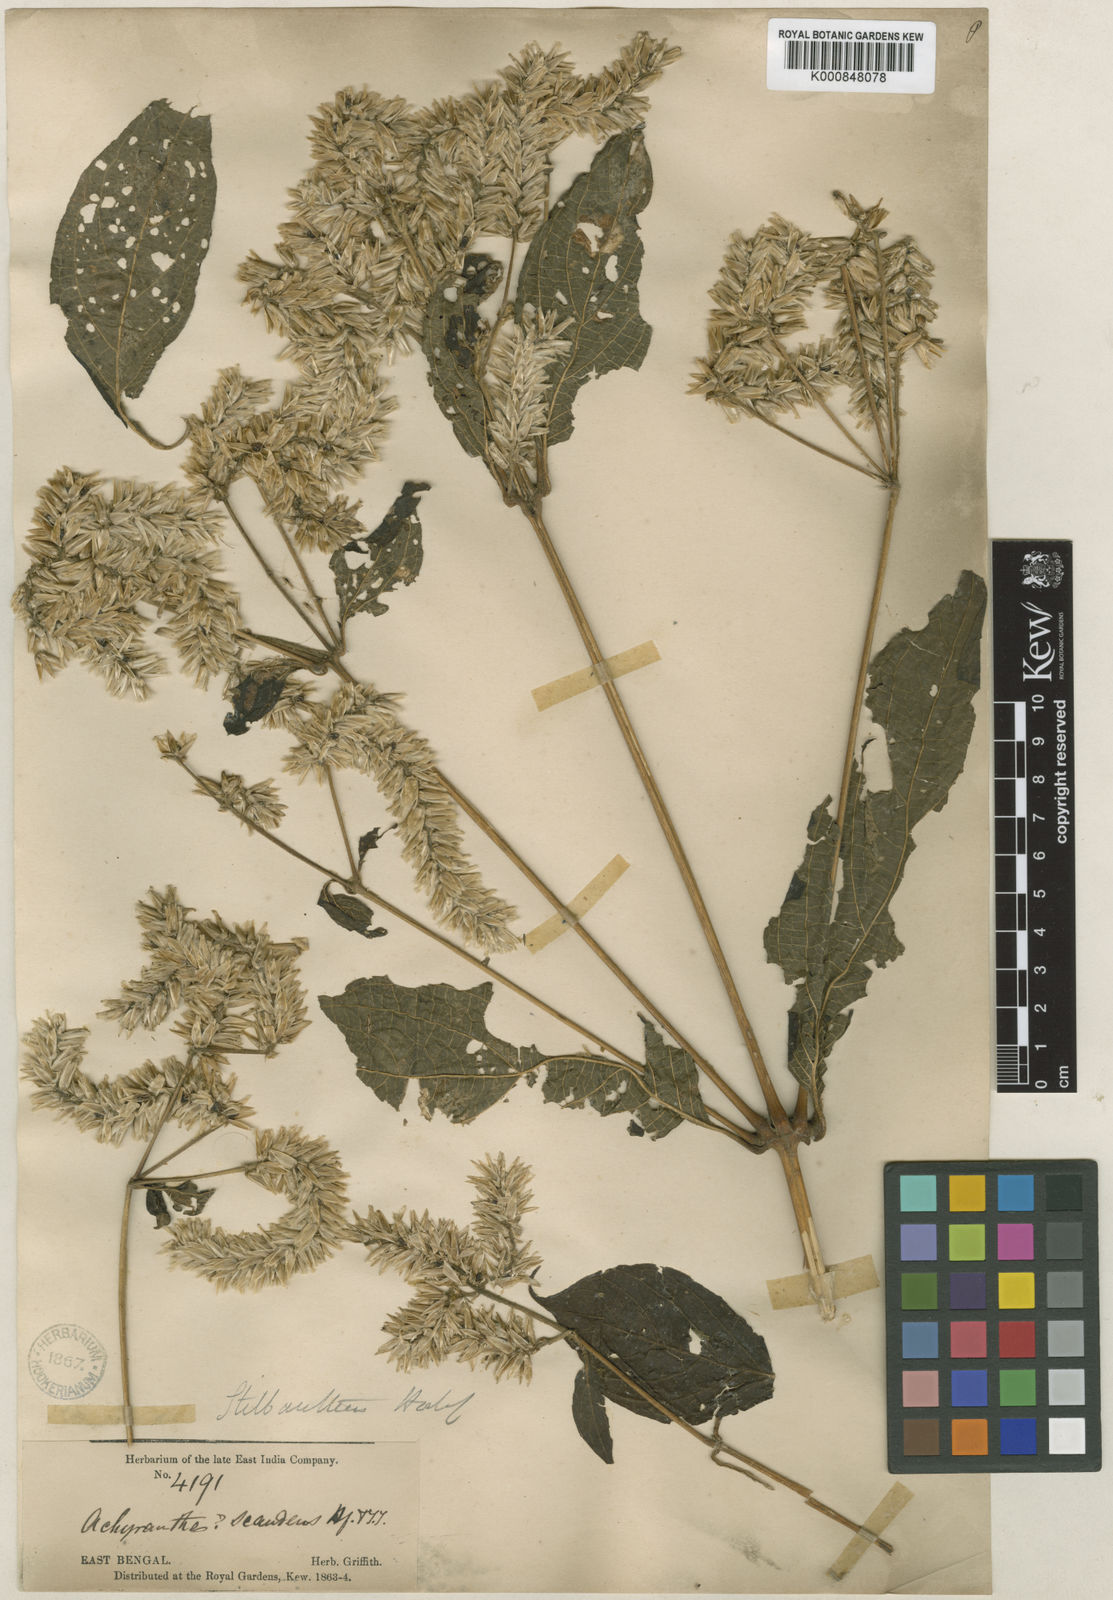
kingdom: Plantae
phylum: Tracheophyta
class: Magnoliopsida
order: Caryophyllales
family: Amaranthaceae
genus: Stilbanthus
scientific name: Stilbanthus scandens
